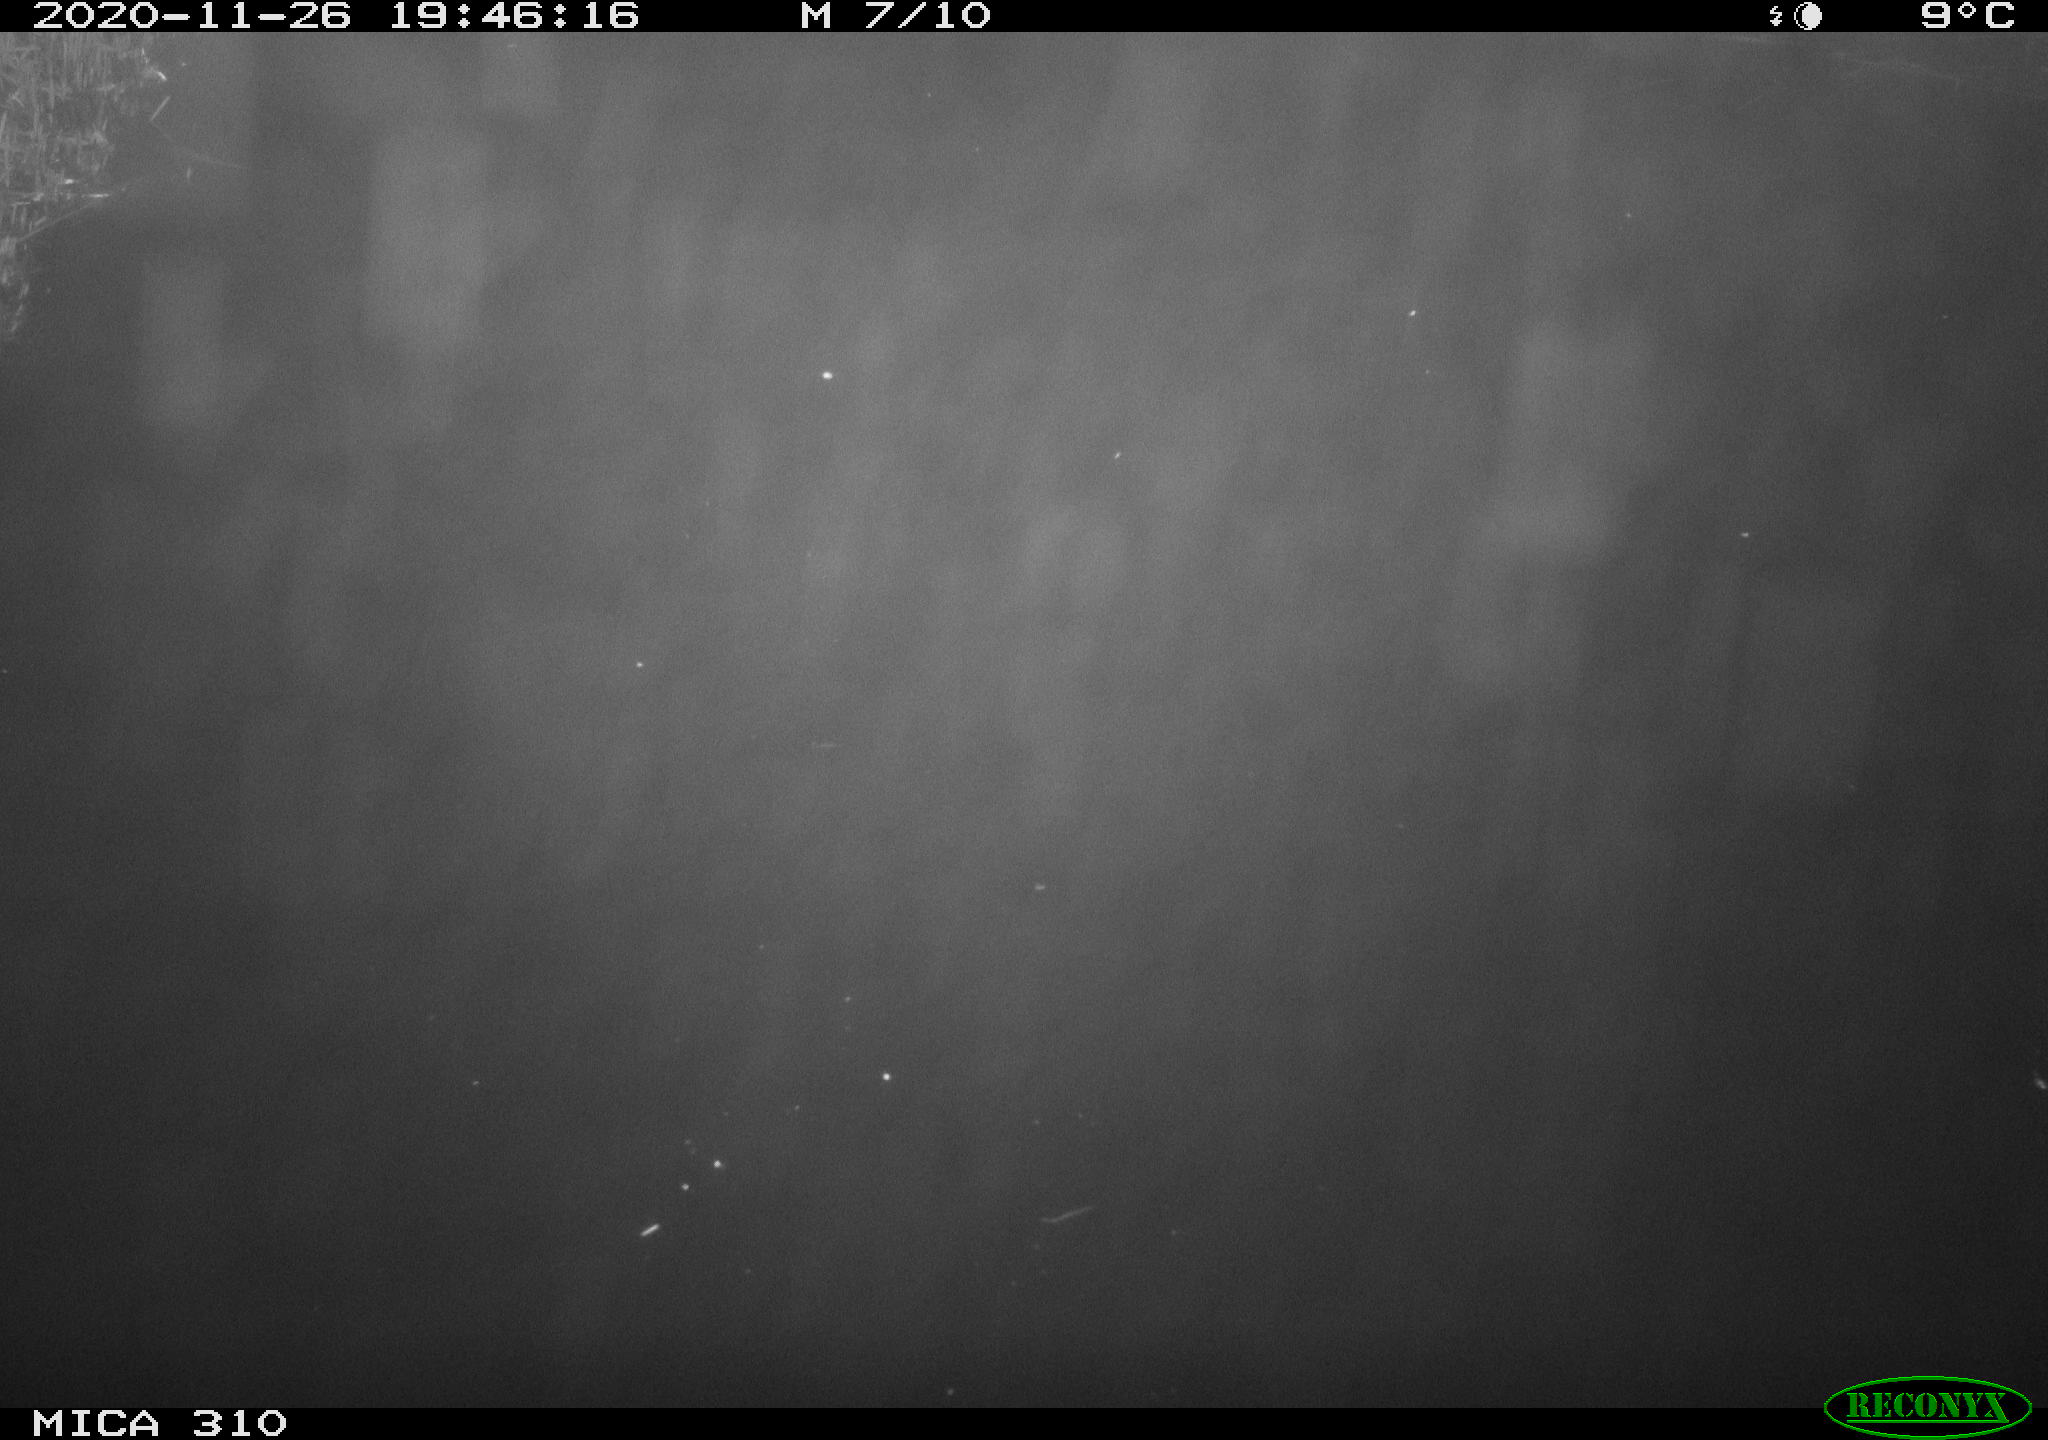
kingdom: Animalia
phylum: Chordata
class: Mammalia
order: Rodentia
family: Muridae
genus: Rattus
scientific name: Rattus norvegicus
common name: Brown rat
